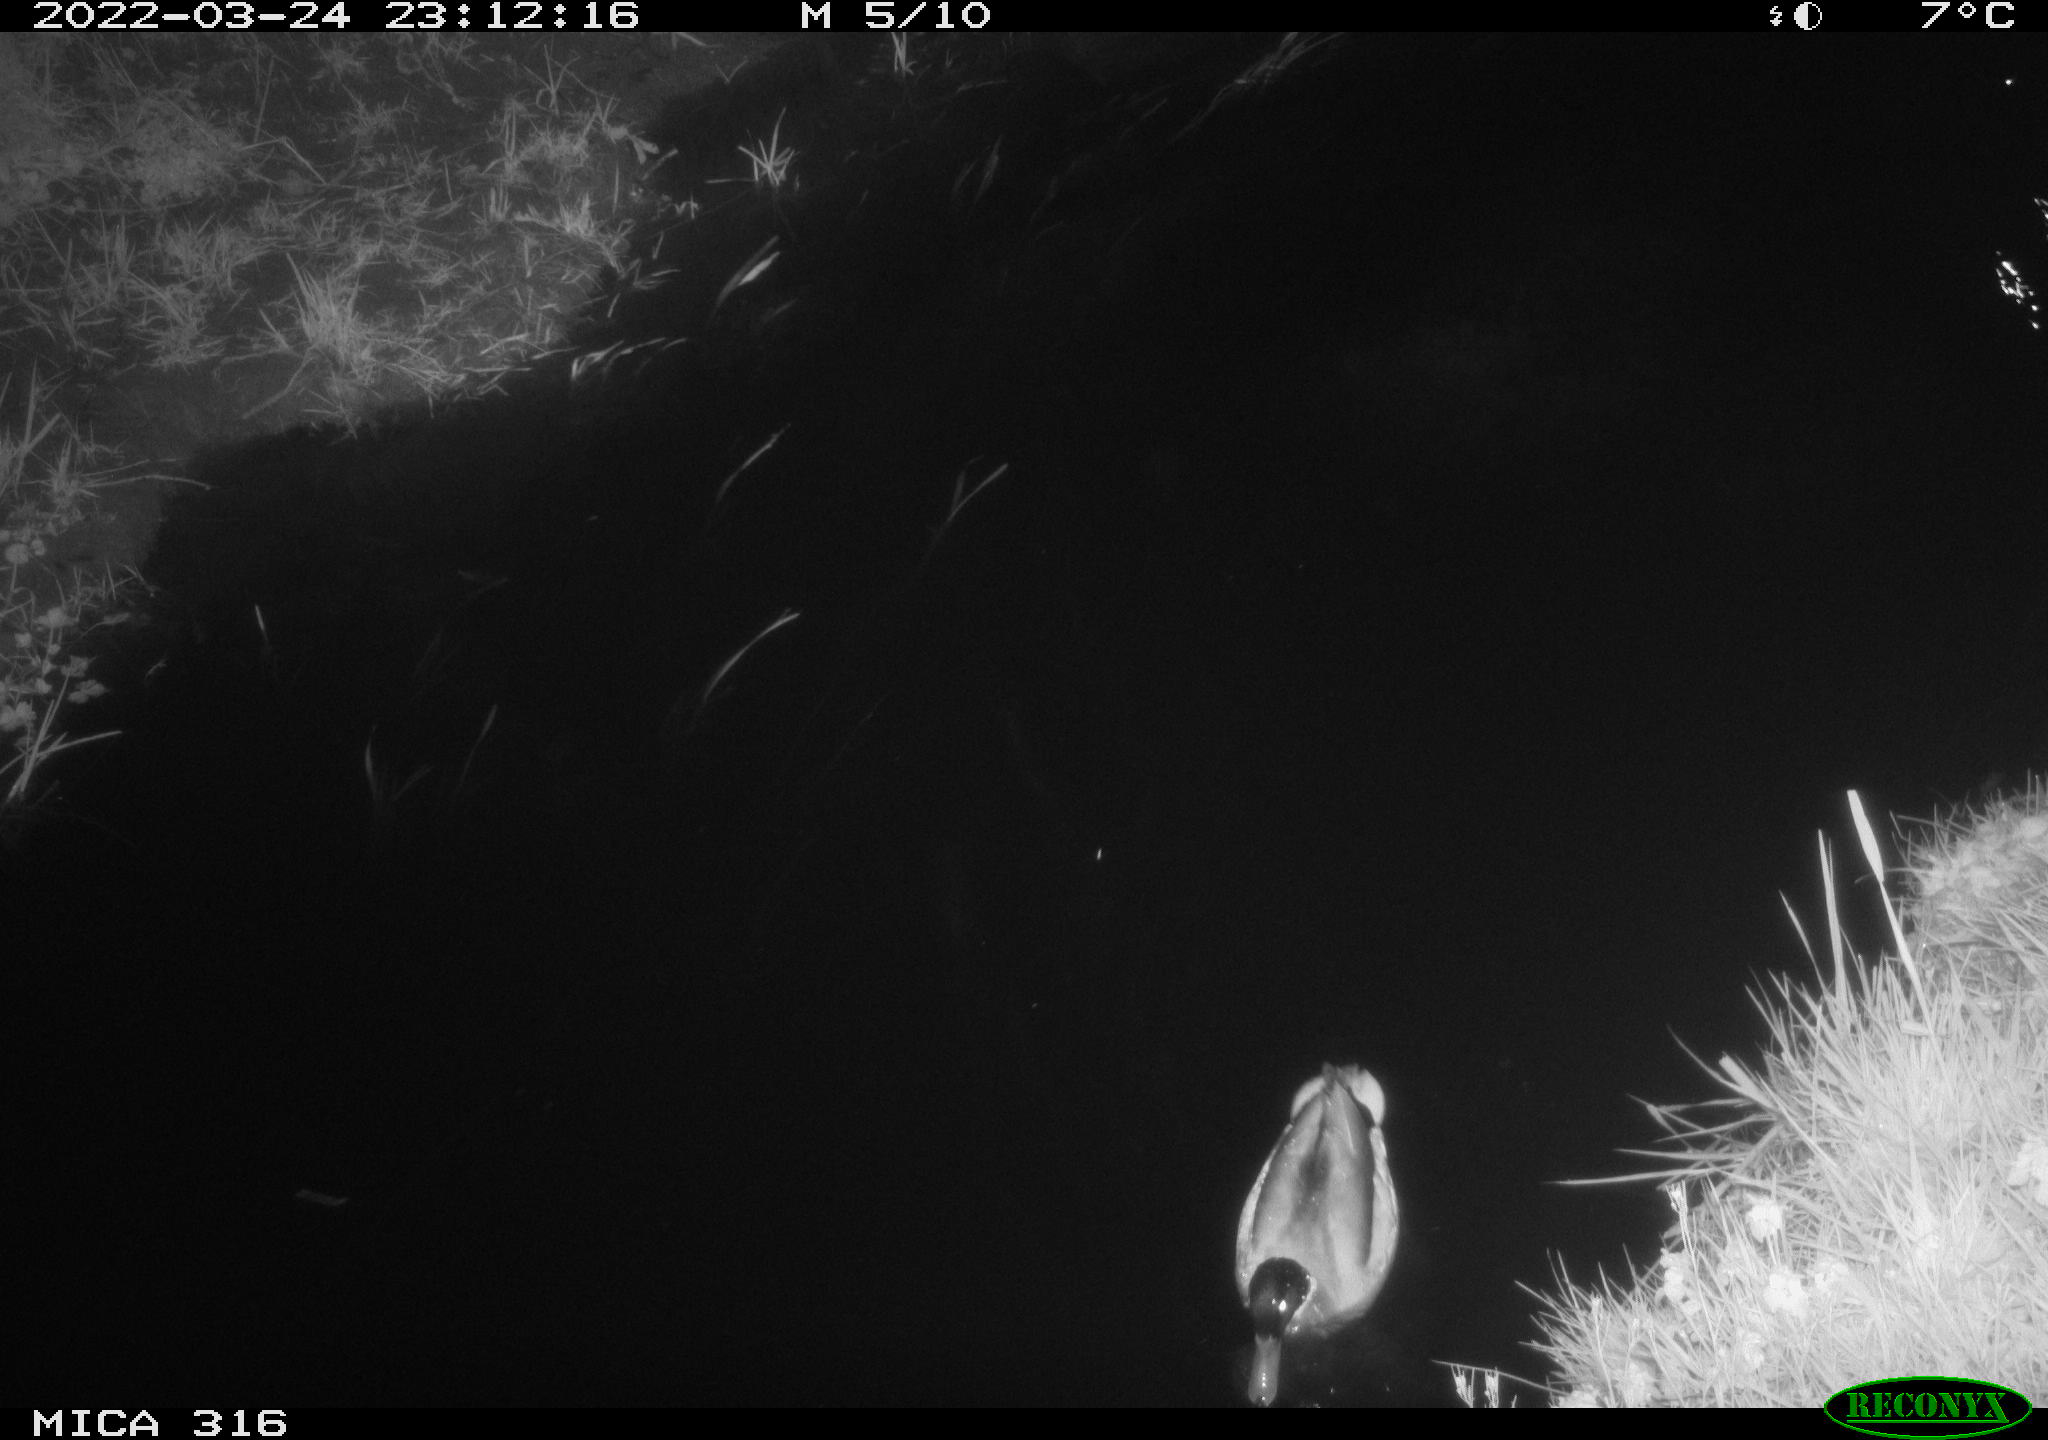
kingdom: Animalia
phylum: Chordata
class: Aves
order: Anseriformes
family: Anatidae
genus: Anas
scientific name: Anas platyrhynchos
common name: Mallard
